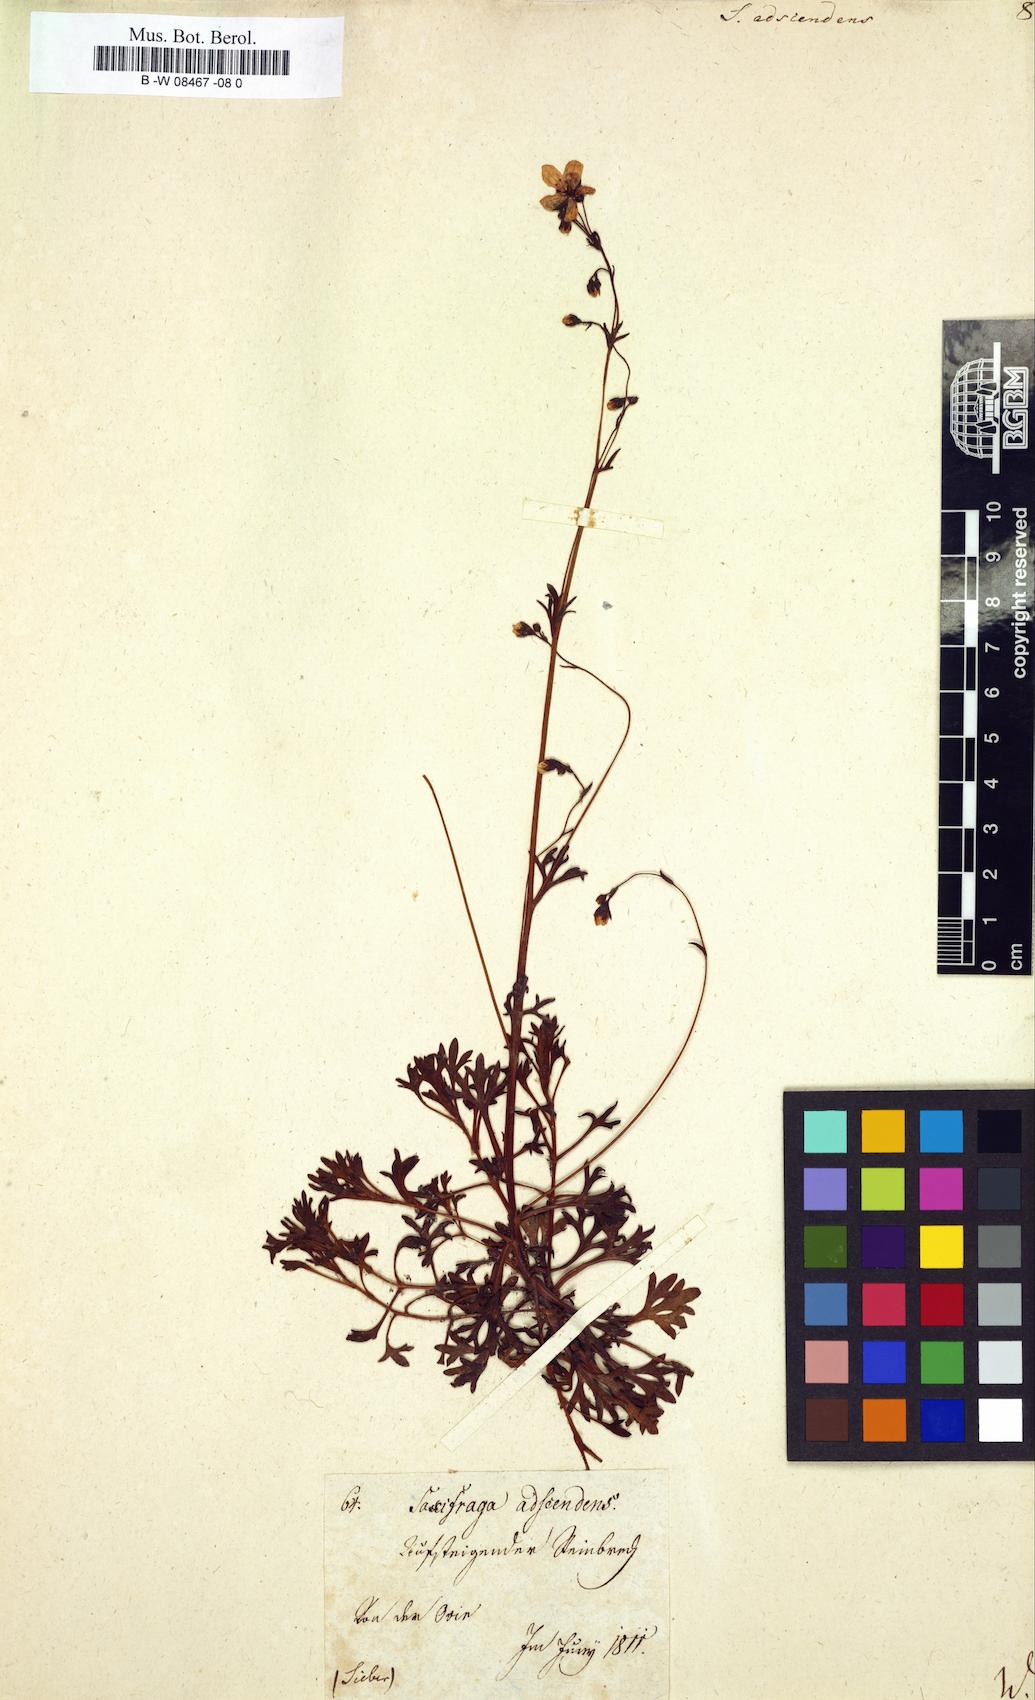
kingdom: Plantae
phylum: Tracheophyta
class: Magnoliopsida
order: Saxifragales
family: Saxifragaceae
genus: Saxifraga
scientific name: Saxifraga adscendens
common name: Ascending saxifrage
